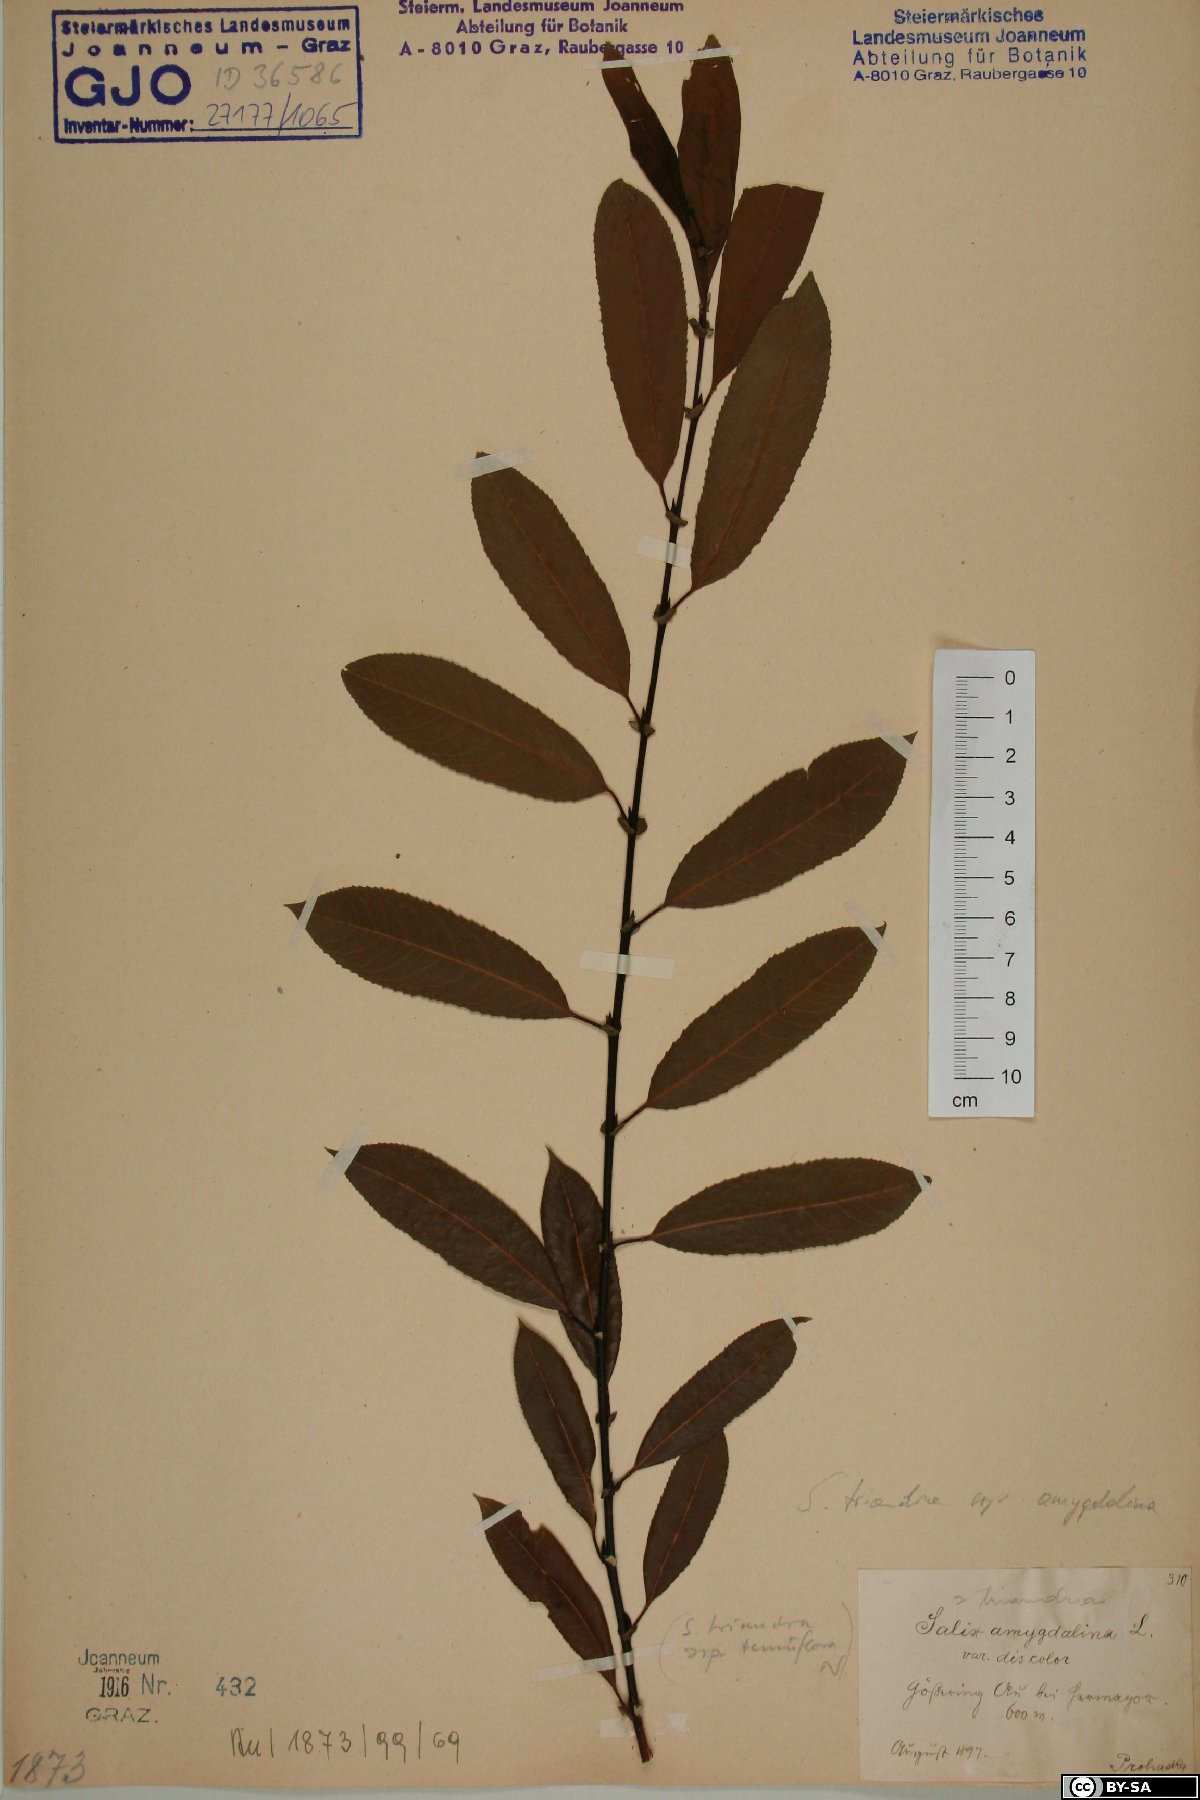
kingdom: Plantae
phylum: Tracheophyta
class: Magnoliopsida
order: Malpighiales
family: Salicaceae
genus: Salix
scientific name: Salix triandra
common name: Almond willow
